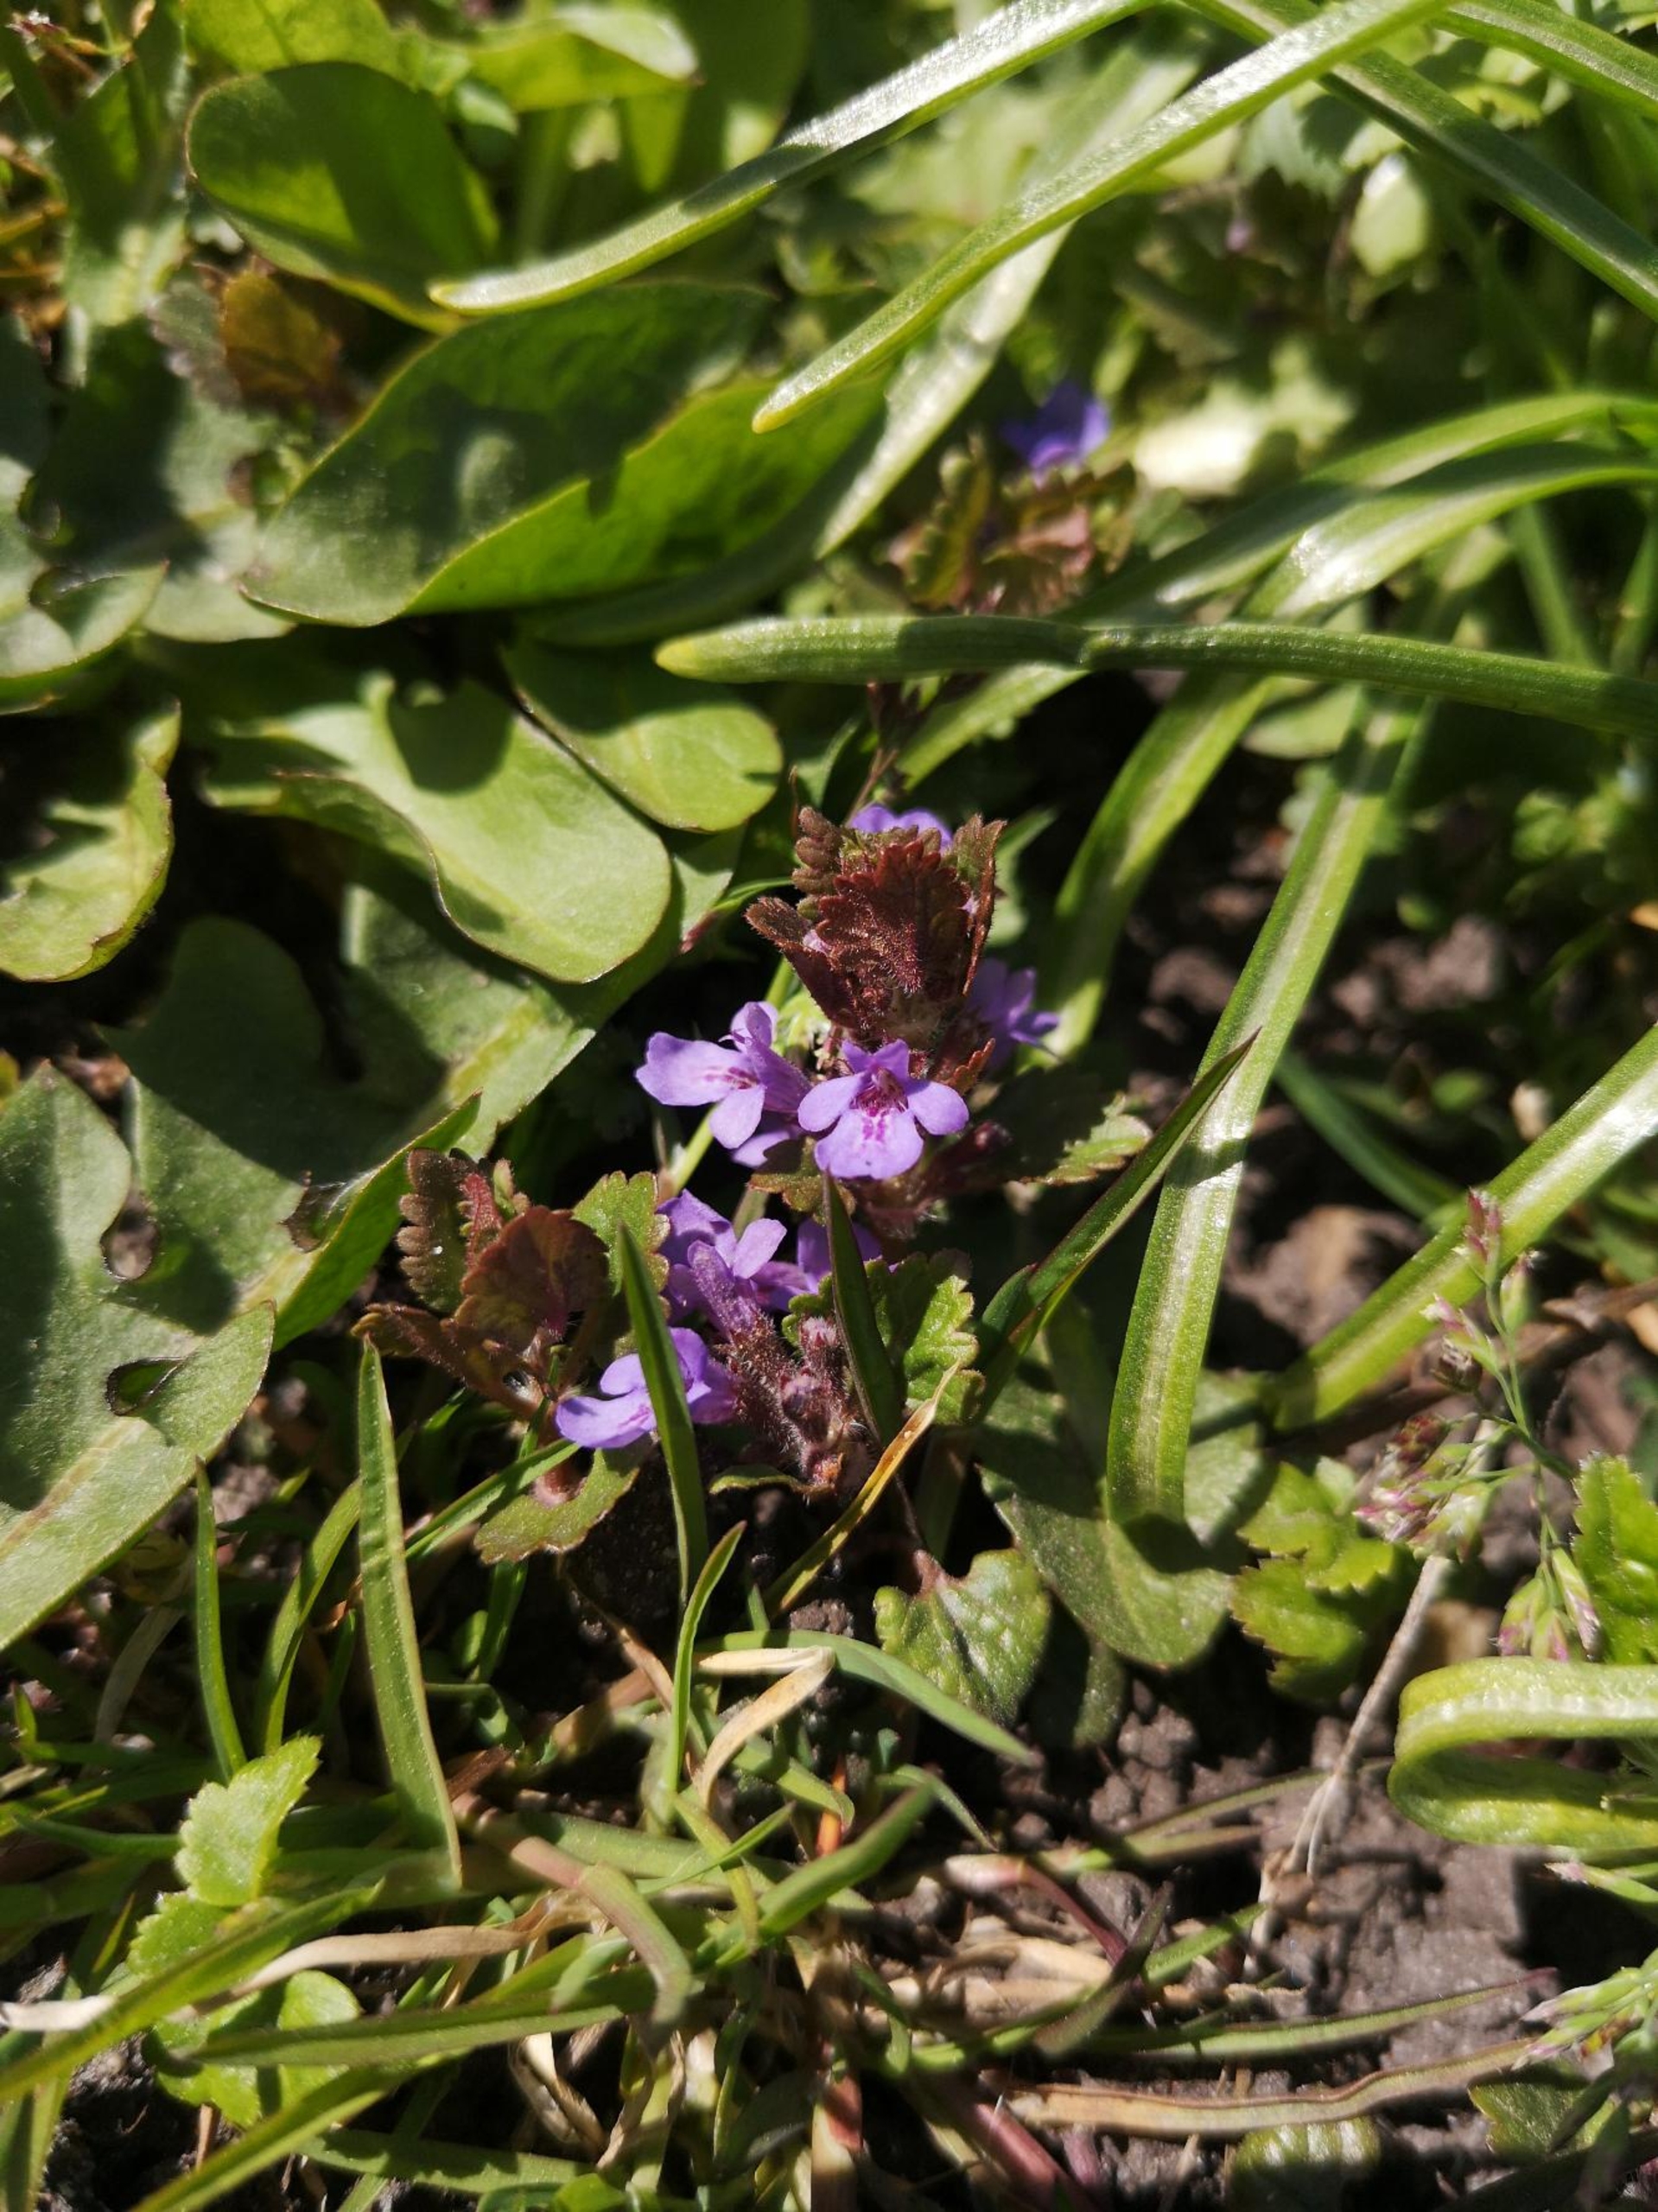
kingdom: Plantae
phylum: Tracheophyta
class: Magnoliopsida
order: Lamiales
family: Lamiaceae
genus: Glechoma
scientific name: Glechoma hederacea
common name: Korsknap
